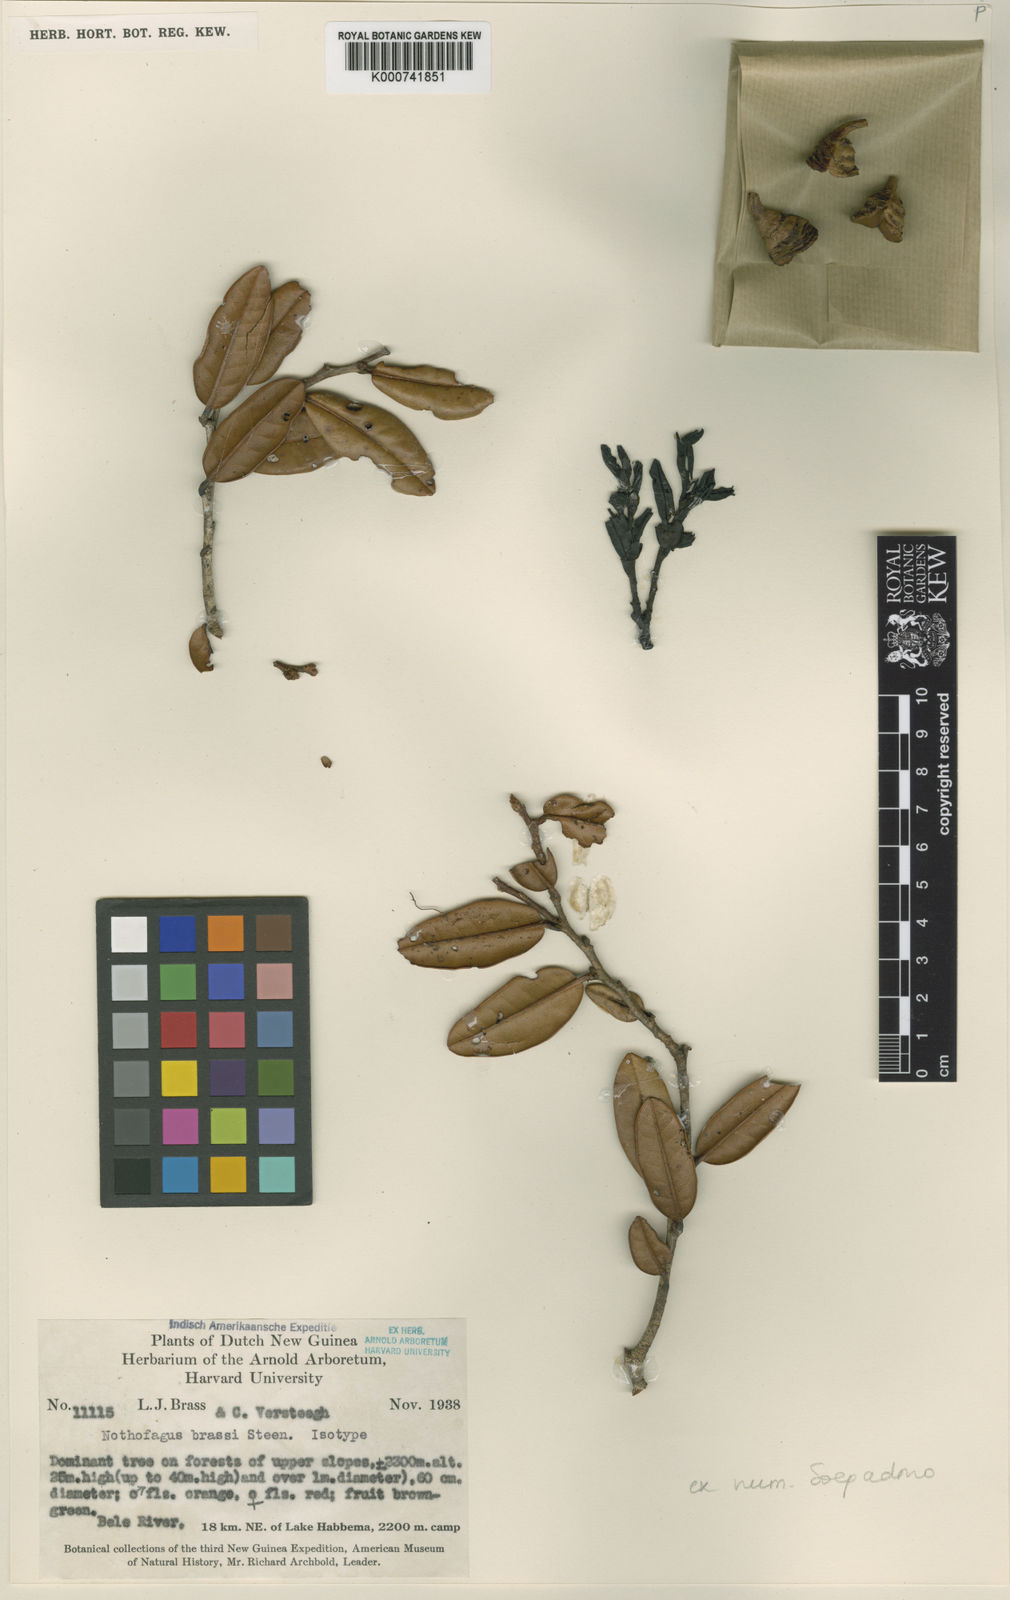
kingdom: Plantae
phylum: Tracheophyta
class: Magnoliopsida
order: Fagales
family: Nothofagaceae
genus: Nothofagus
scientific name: Nothofagus brassii
